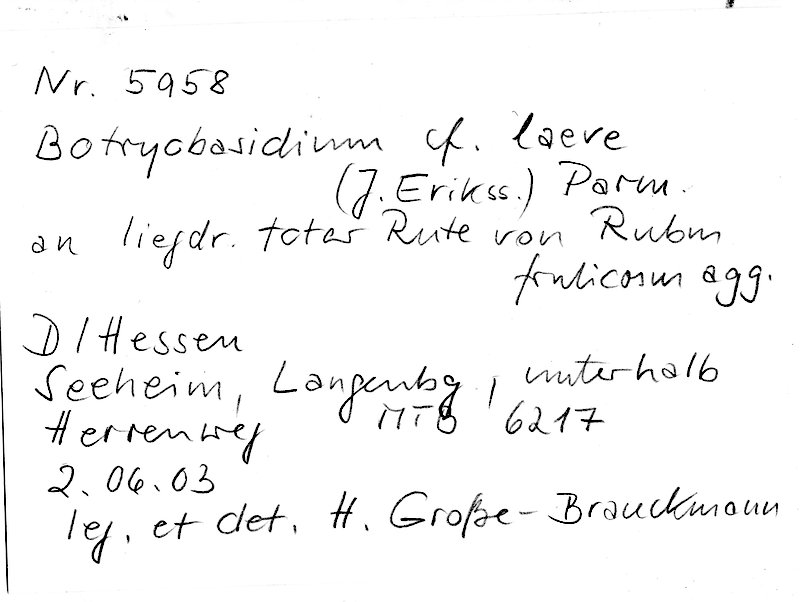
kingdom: Fungi
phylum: Basidiomycota
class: Agaricomycetes
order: Cantharellales
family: Botryobasidiaceae
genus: Botryobasidium
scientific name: Botryobasidium laeve
